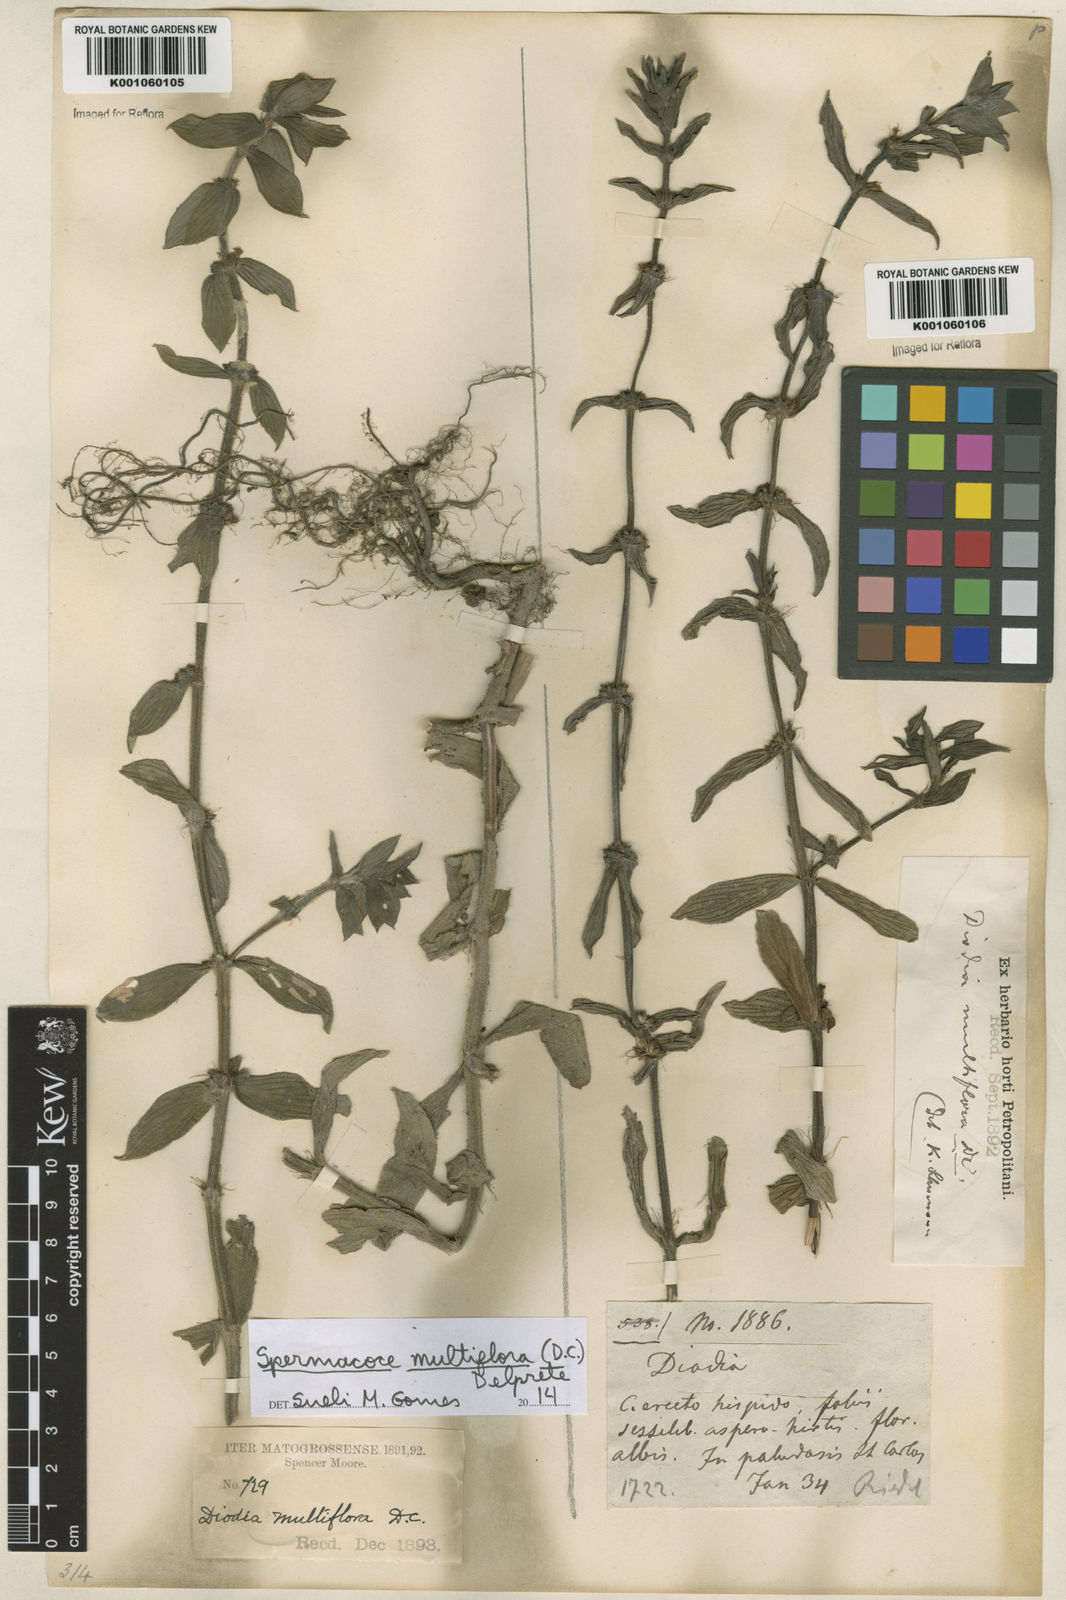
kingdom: Plantae
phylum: Tracheophyta
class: Magnoliopsida
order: Gentianales
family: Rubiaceae
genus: Spermacoce
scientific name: Spermacoce multiflora
